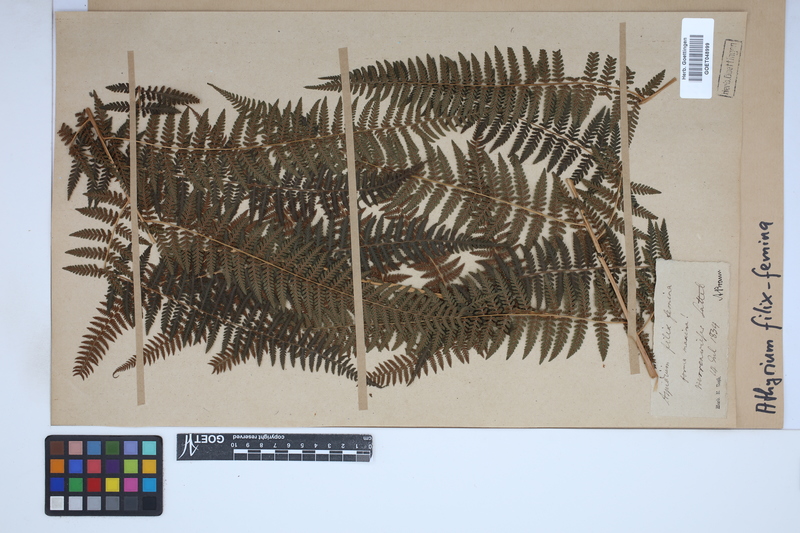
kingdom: Plantae
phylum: Tracheophyta
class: Polypodiopsida
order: Polypodiales
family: Athyriaceae
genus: Athyrium
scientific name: Athyrium filix-femina
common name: Lady fern
